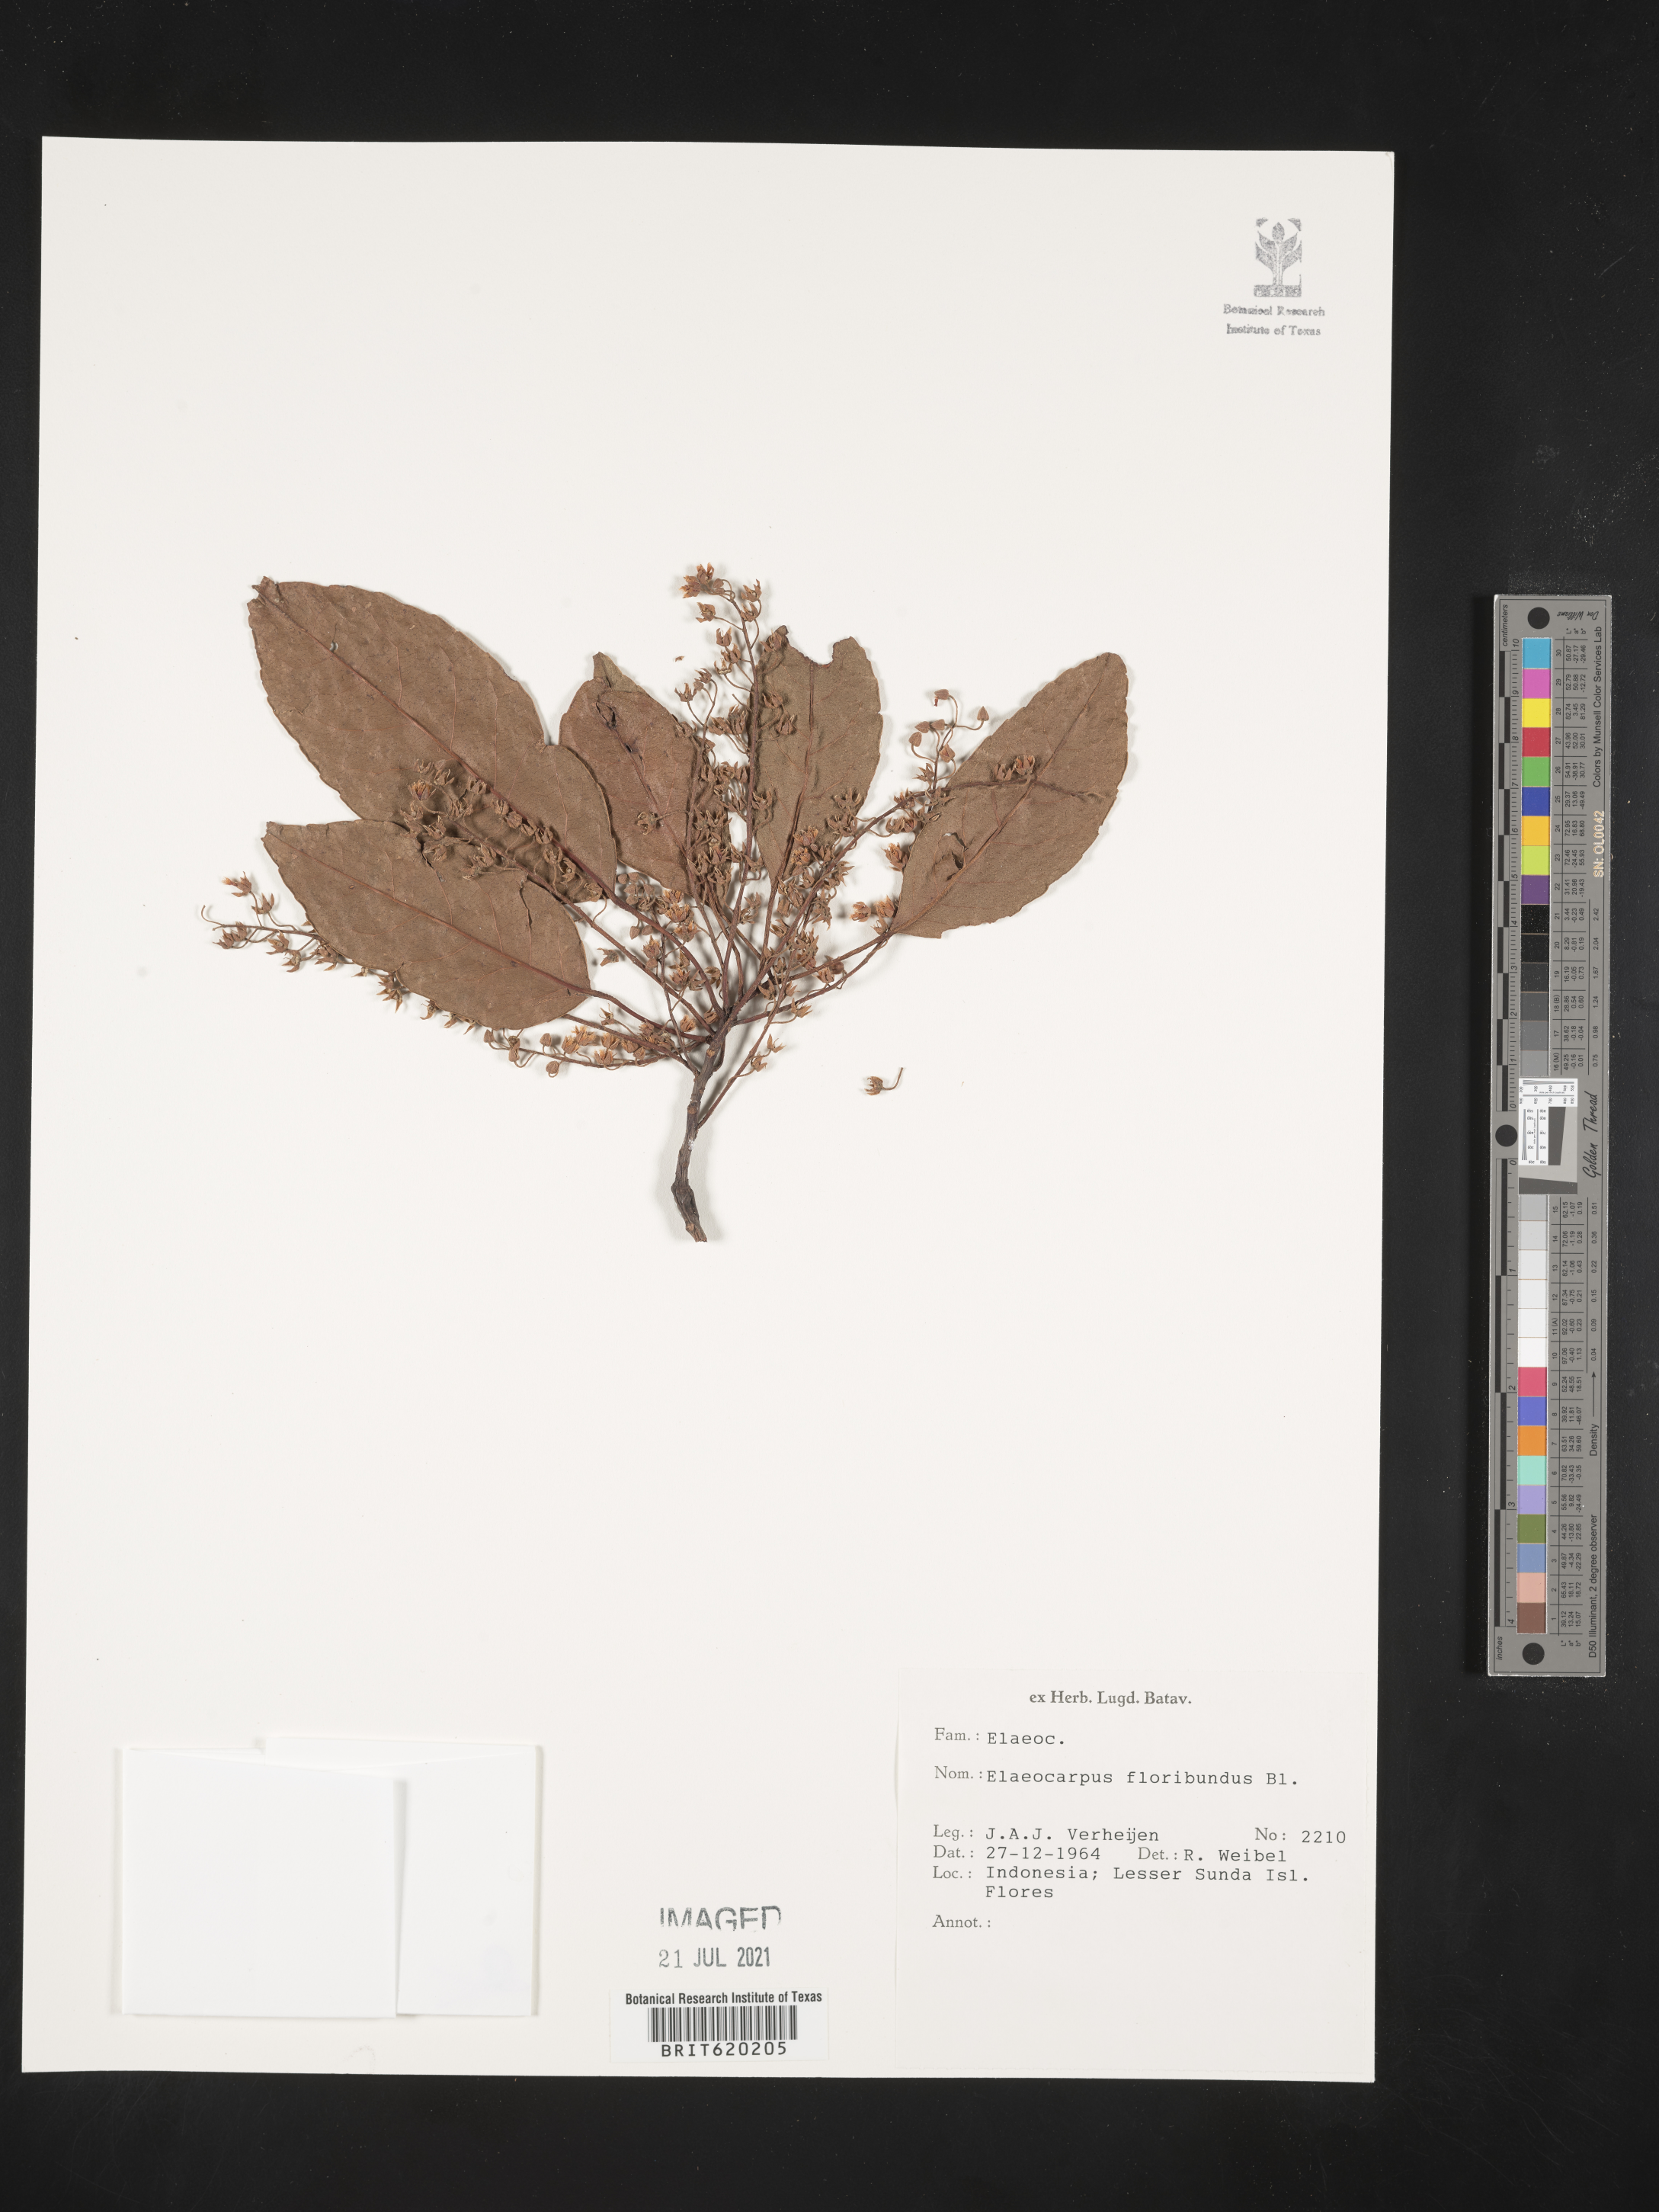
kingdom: Plantae
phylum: Tracheophyta
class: Magnoliopsida
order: Oxalidales
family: Elaeocarpaceae
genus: Elaeocarpus
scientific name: Elaeocarpus floribundus
